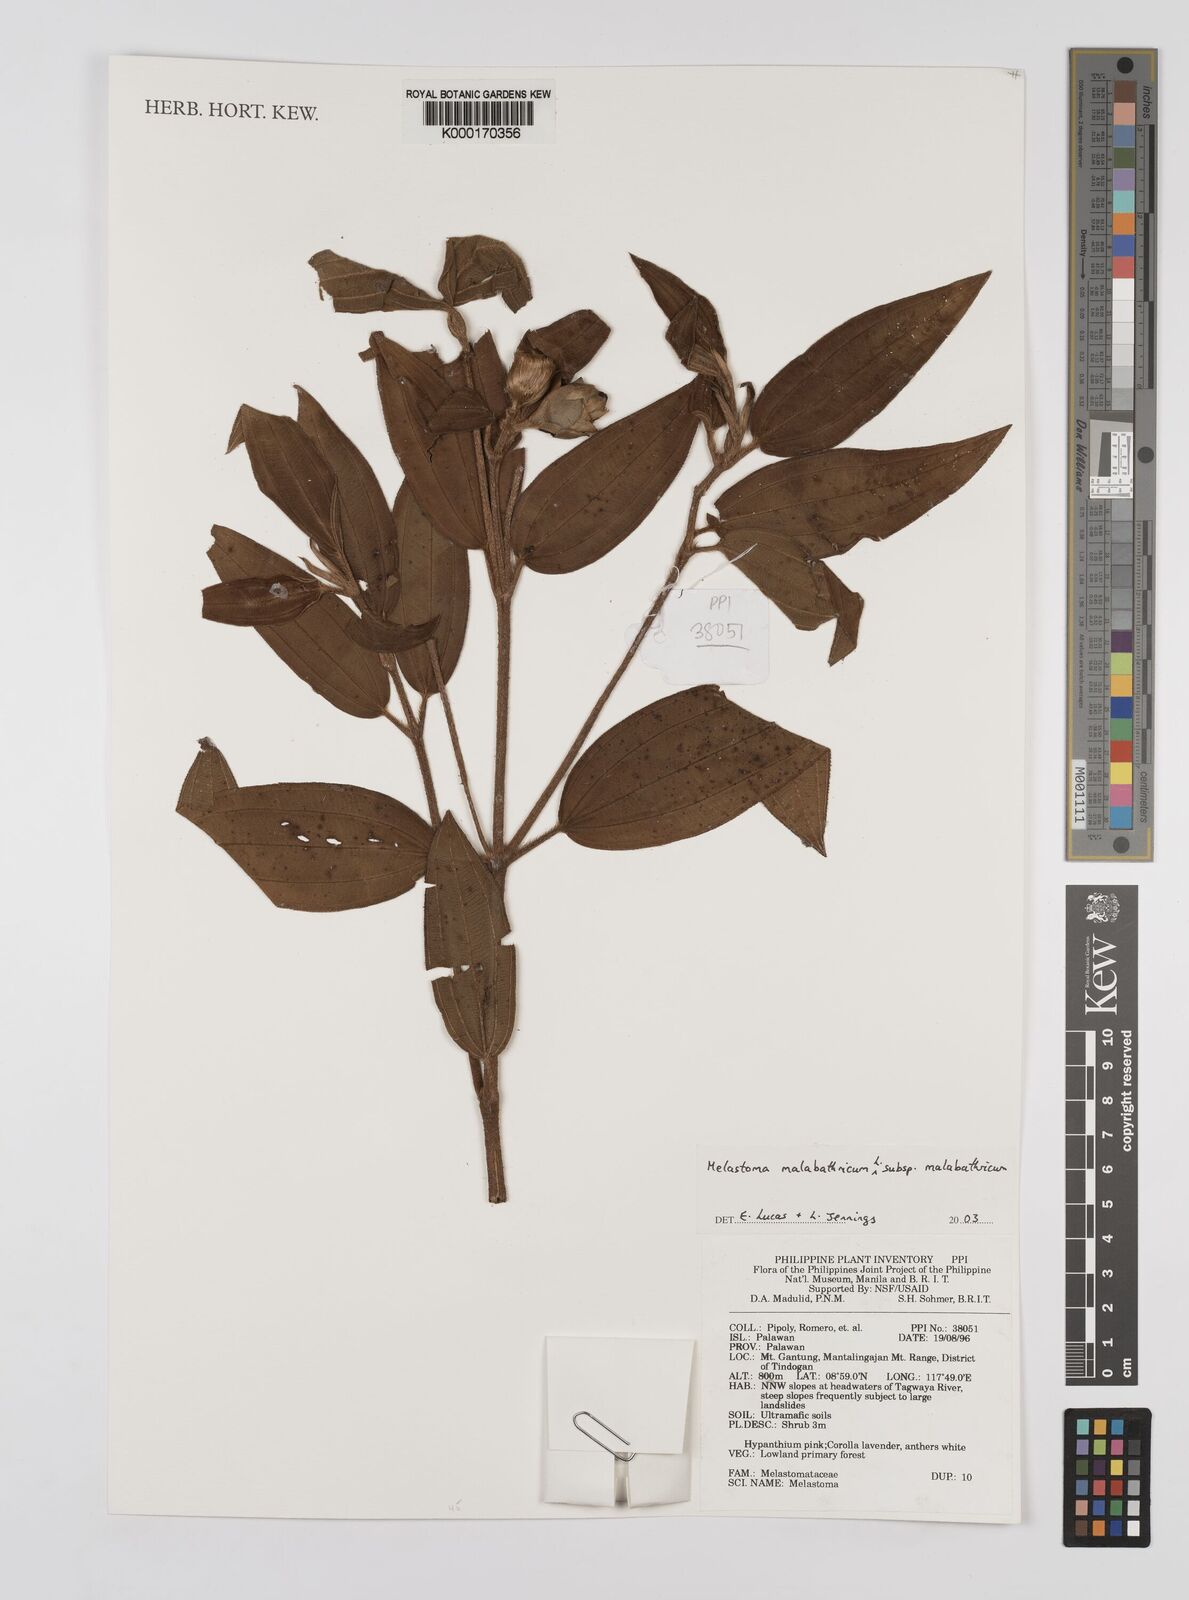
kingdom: Plantae
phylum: Tracheophyta
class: Magnoliopsida
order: Myrtales
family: Melastomataceae
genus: Melastoma
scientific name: Melastoma malabathricum
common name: Indian-rhododendron
